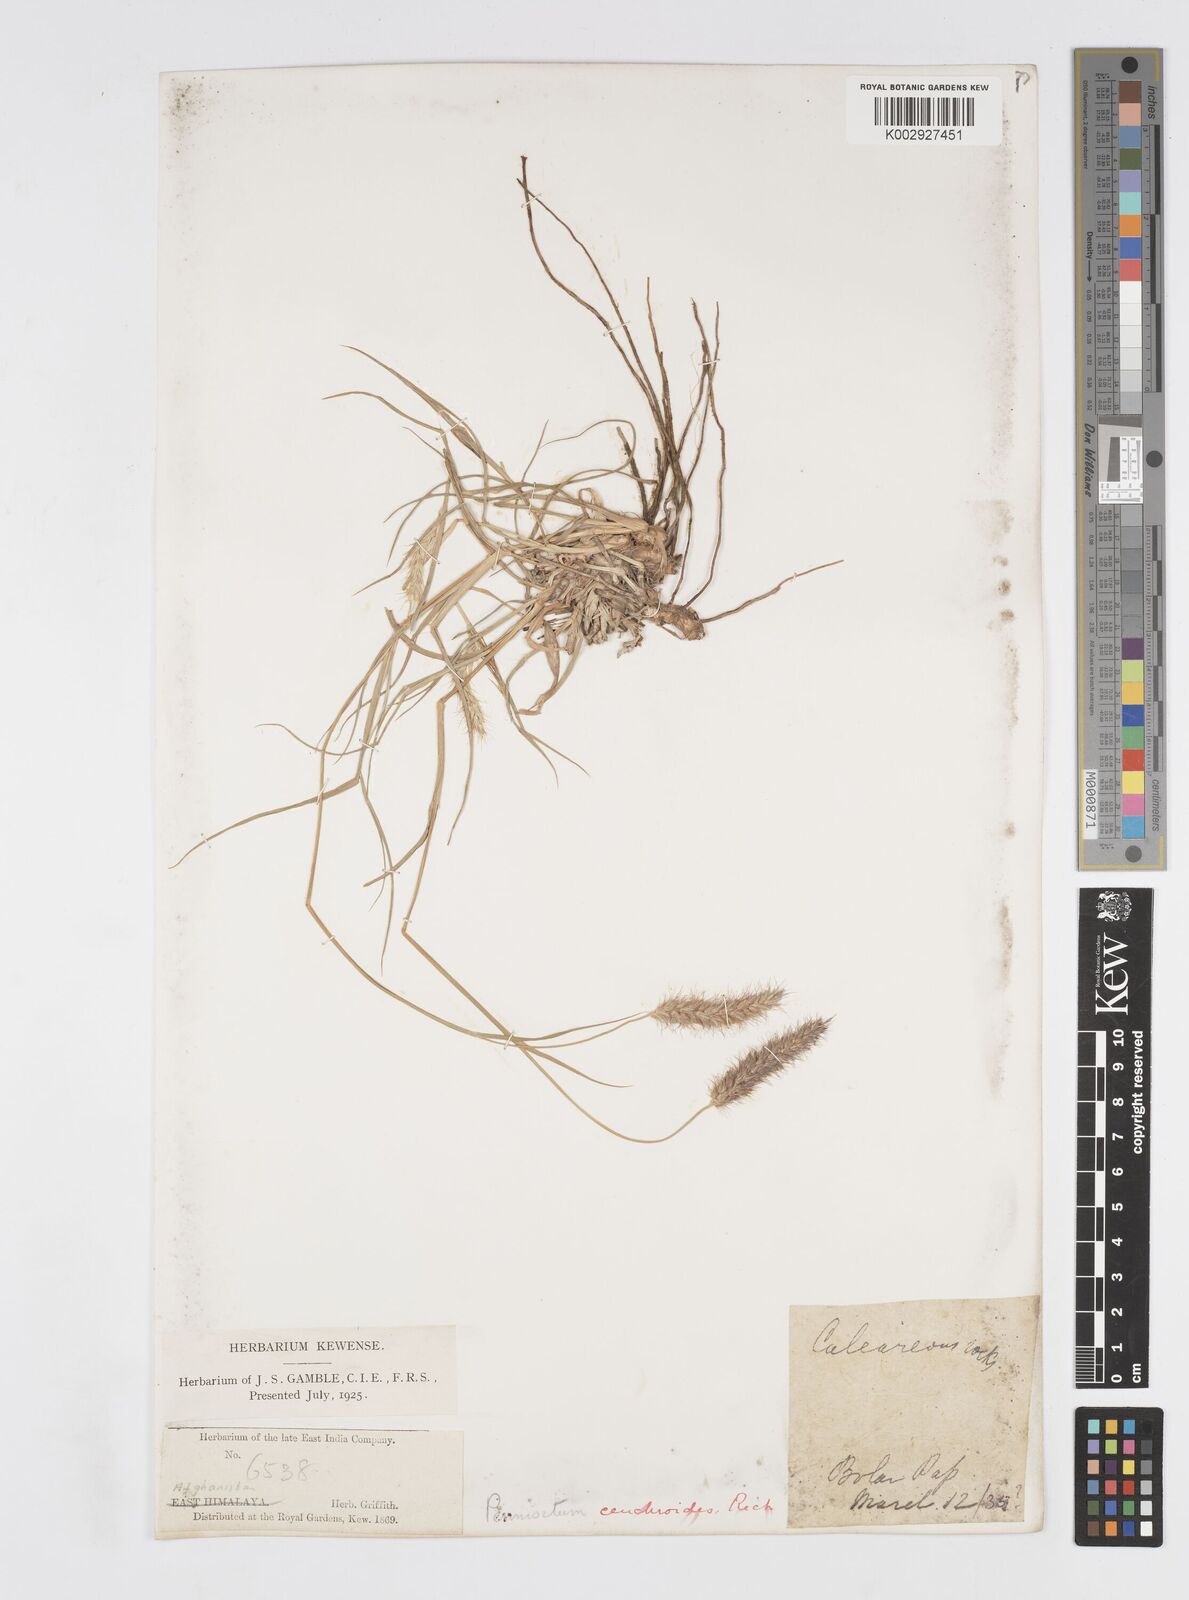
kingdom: Plantae
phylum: Tracheophyta
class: Liliopsida
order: Poales
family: Poaceae
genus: Cenchrus
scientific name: Cenchrus ciliaris
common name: Buffelgrass
